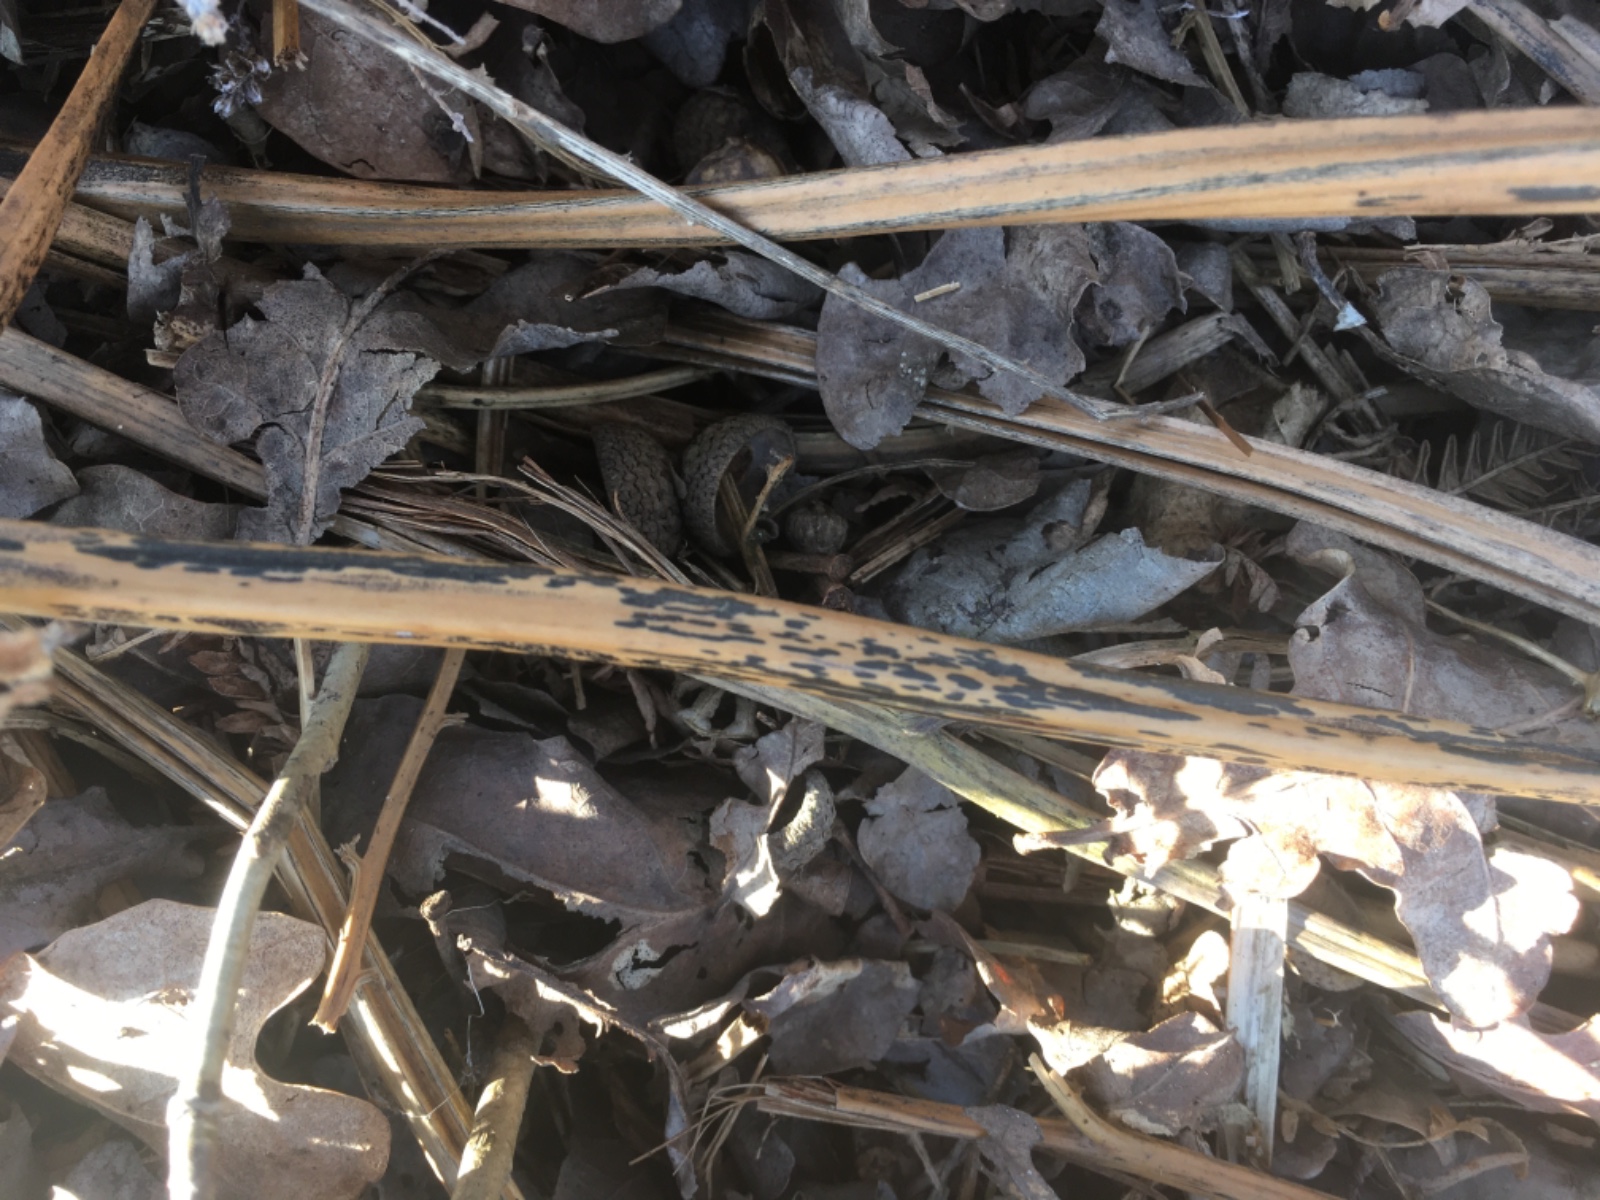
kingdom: Fungi
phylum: Ascomycota
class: Dothideomycetes
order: Pleosporales
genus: Rhopographus
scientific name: Rhopographus filicinus
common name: Bracken map
